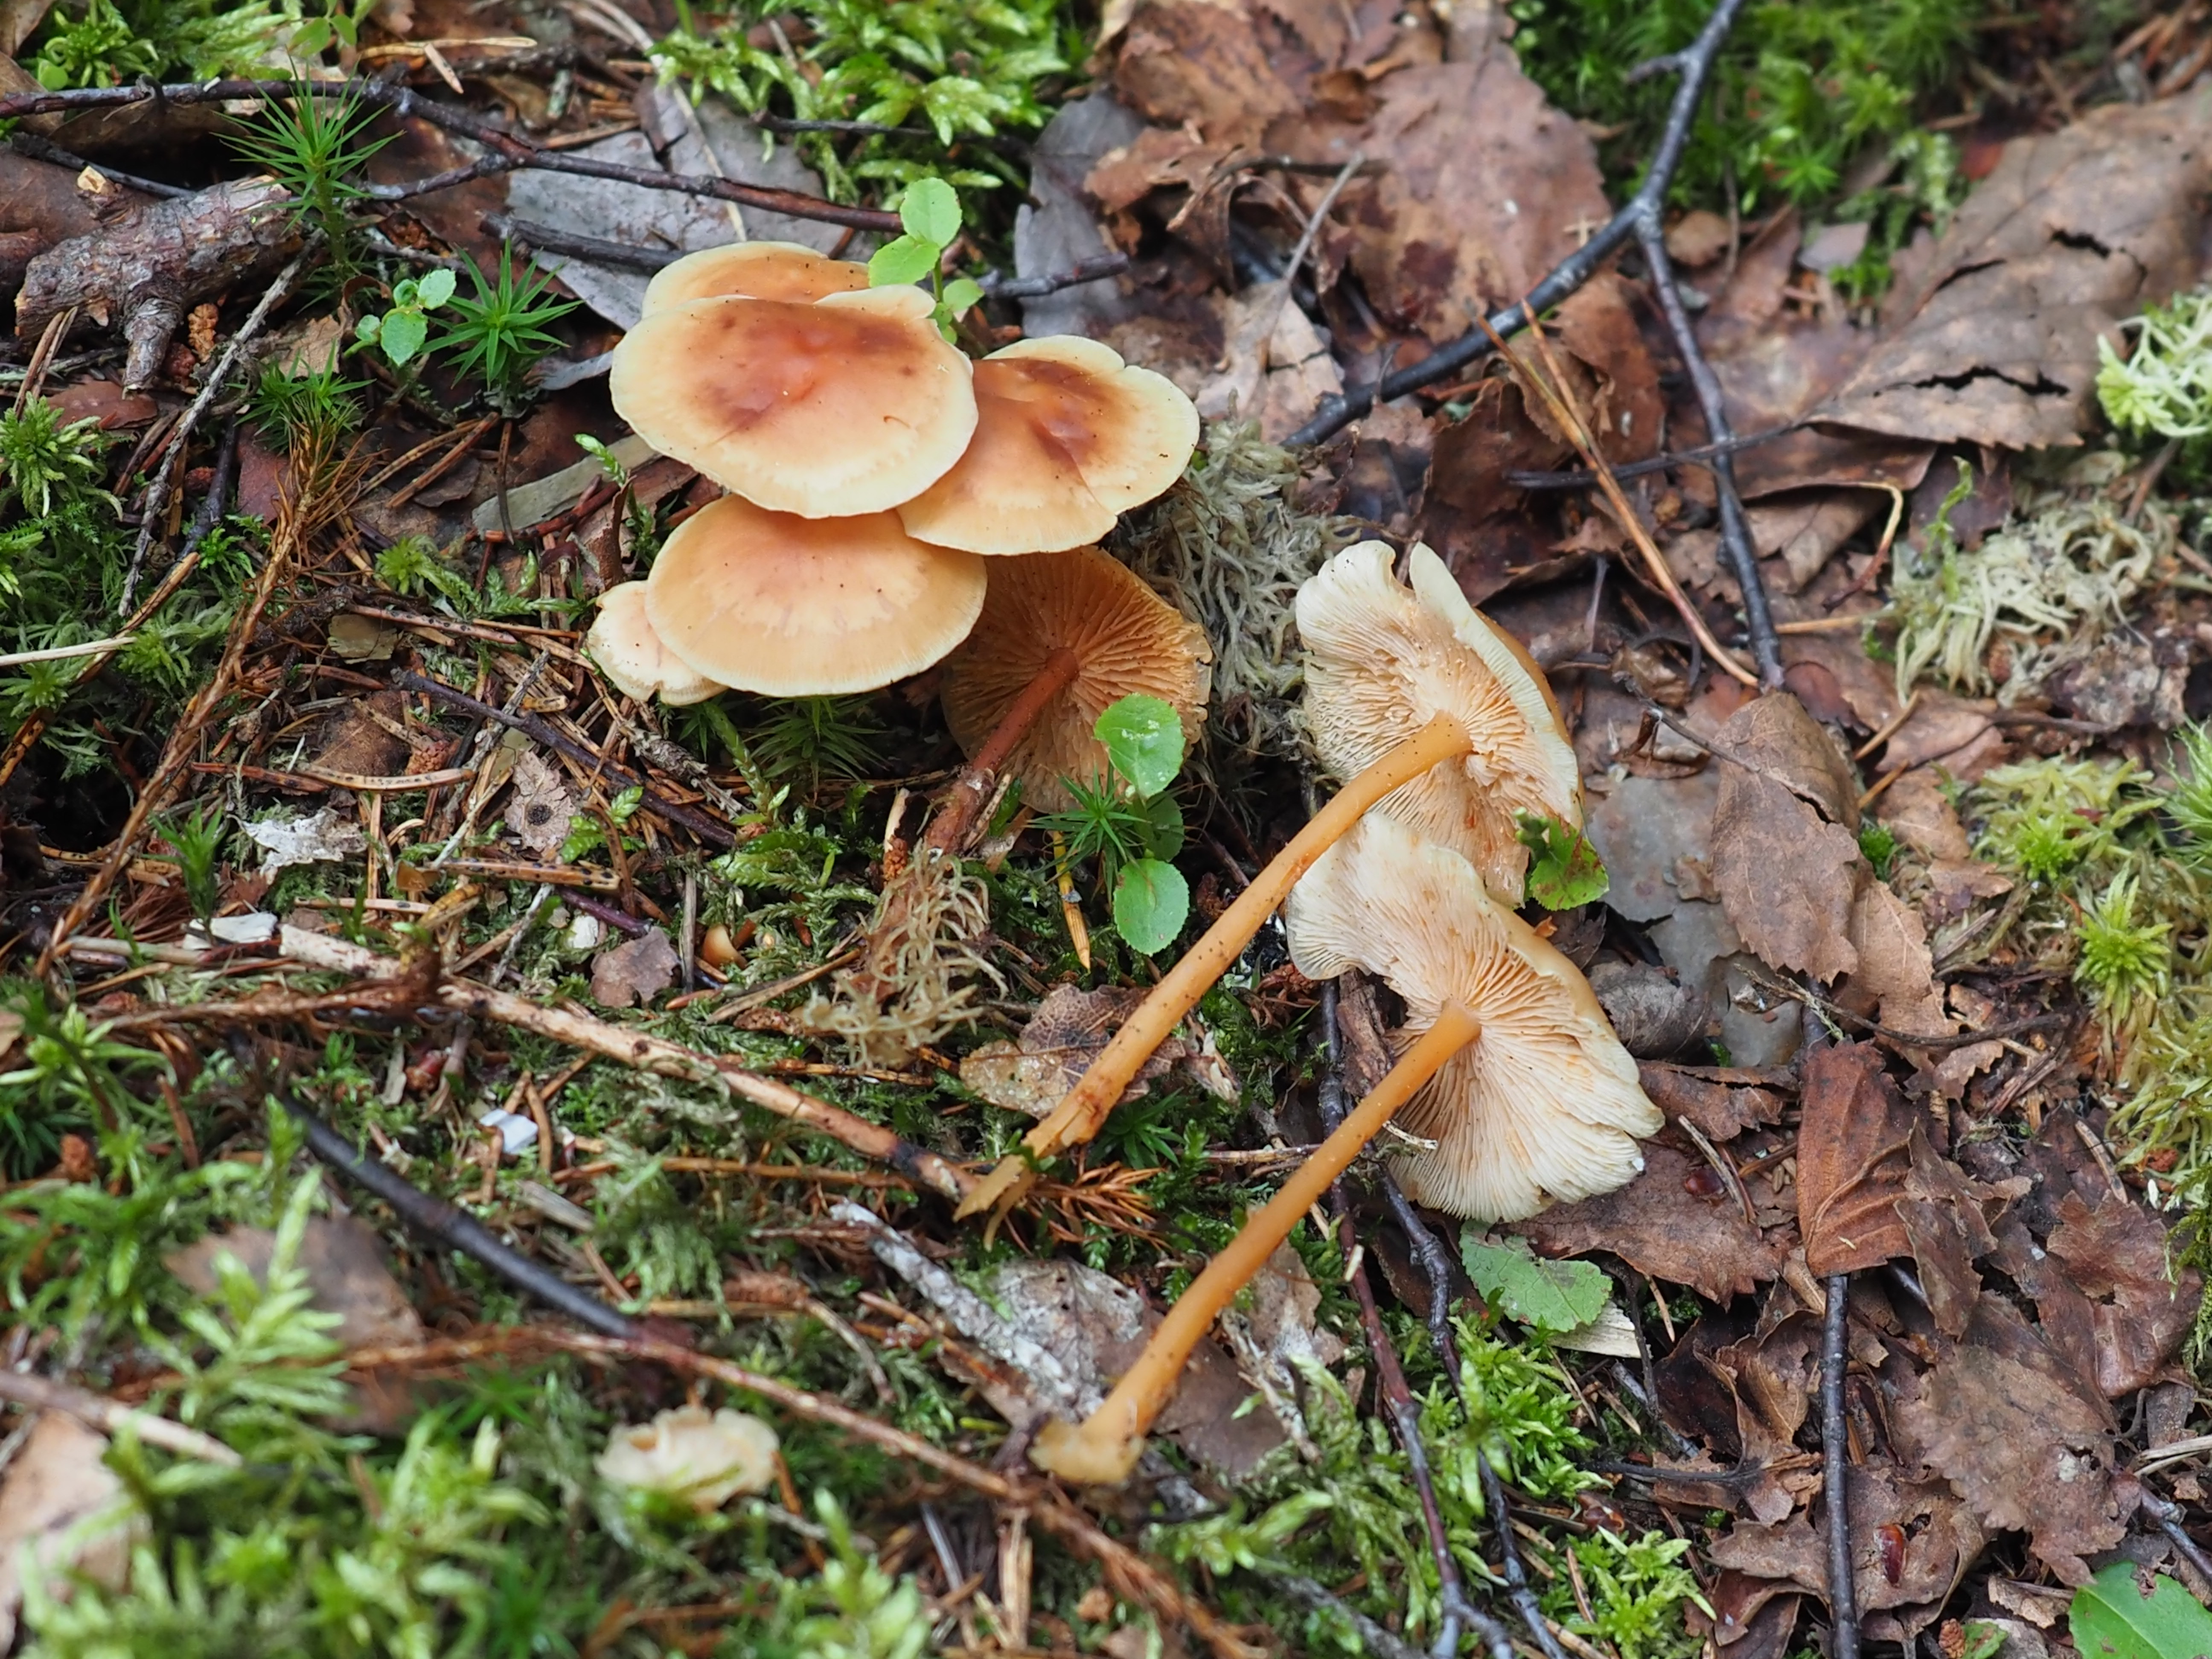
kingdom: Fungi
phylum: Basidiomycota
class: Agaricomycetes
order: Agaricales
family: Omphalotaceae
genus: Gymnopus
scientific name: Gymnopus dryophilus
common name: Penny top
